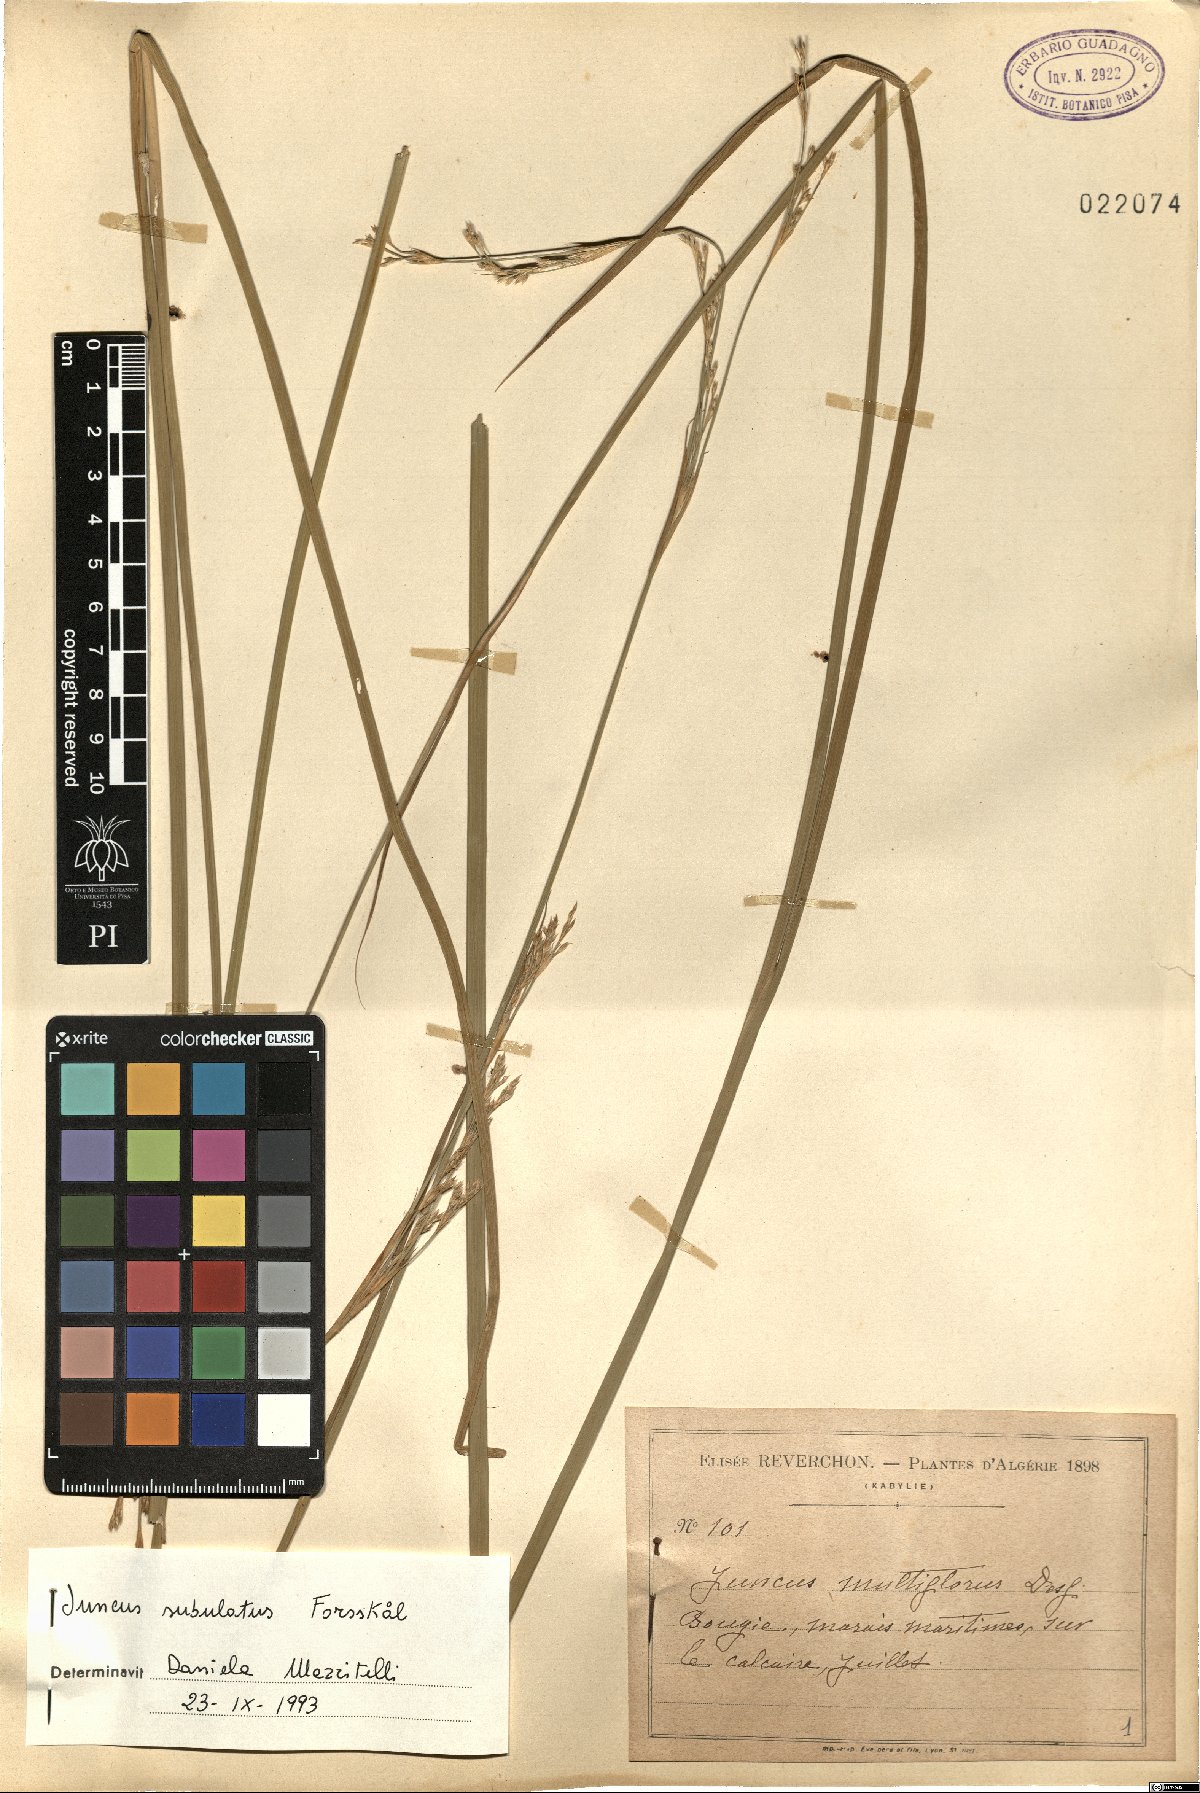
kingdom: Plantae
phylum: Tracheophyta
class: Liliopsida
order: Poales
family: Juncaceae
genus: Juncus
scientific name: Juncus subulatus
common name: Somerset rush
